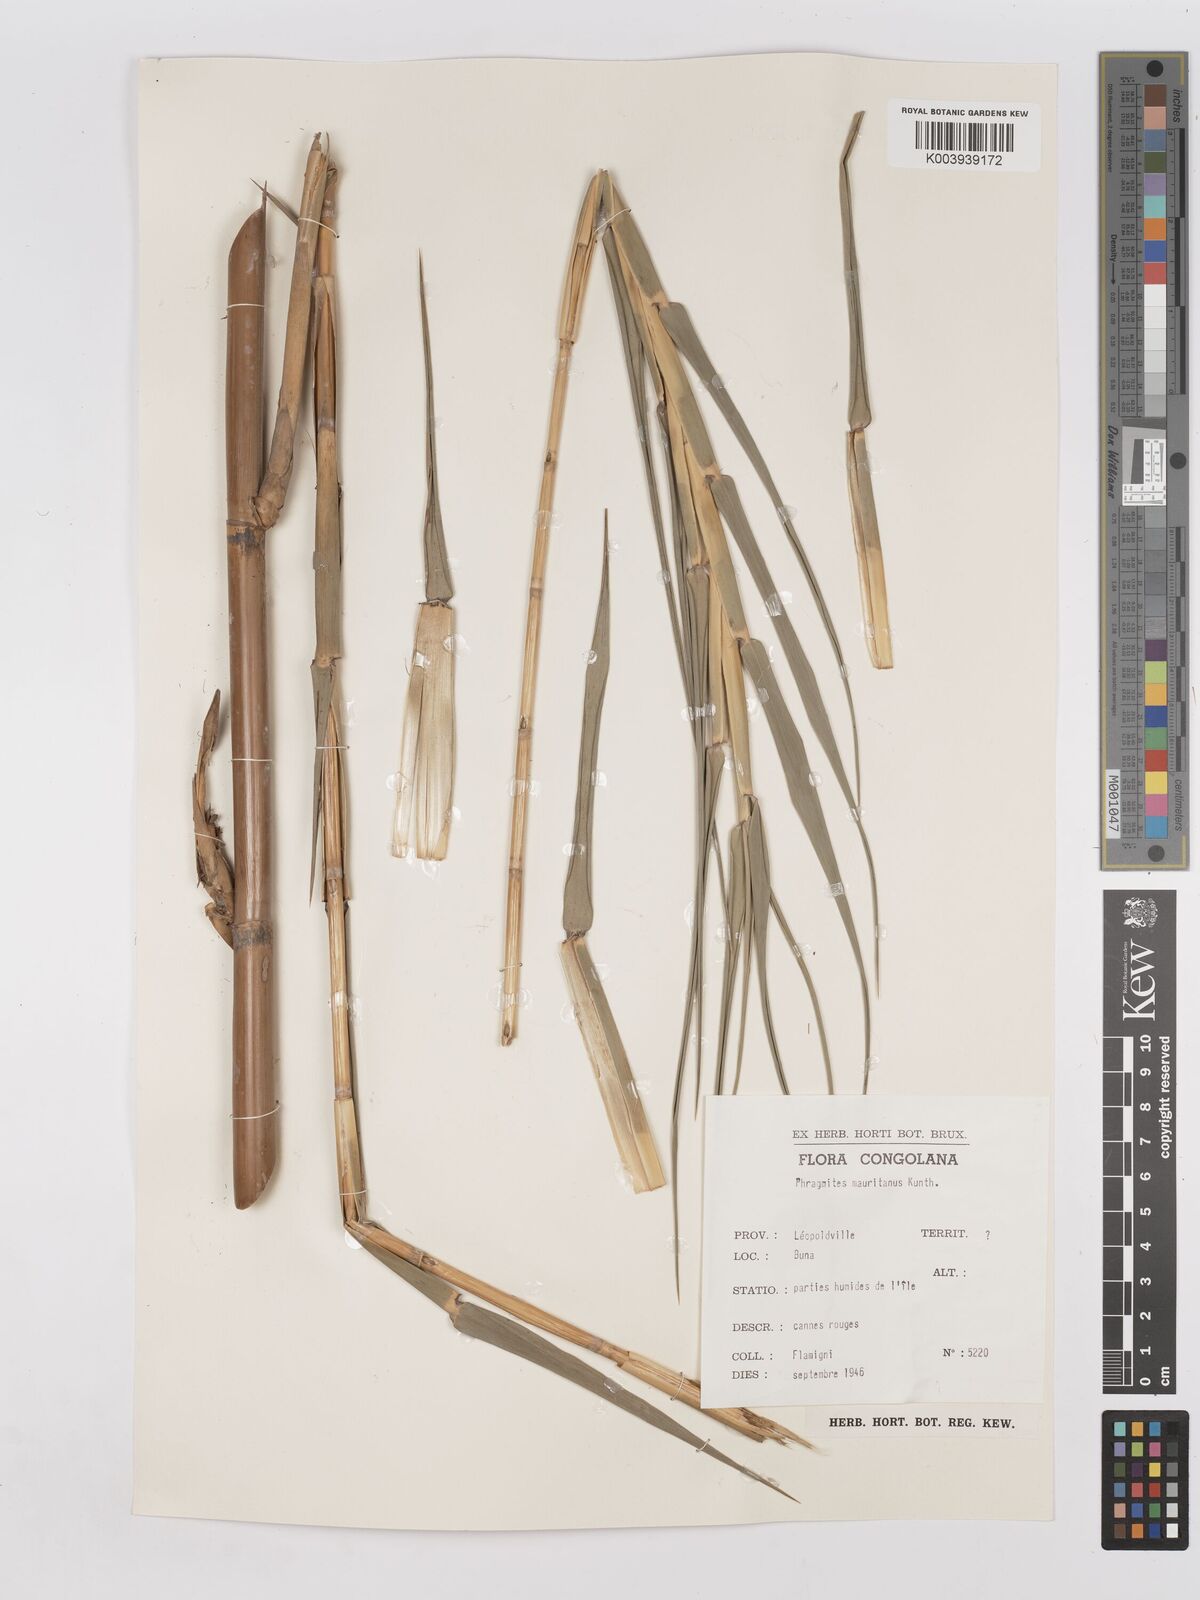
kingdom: Plantae
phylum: Tracheophyta
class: Liliopsida
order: Poales
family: Poaceae
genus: Phragmites
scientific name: Phragmites mauritianus
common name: Reed grass
